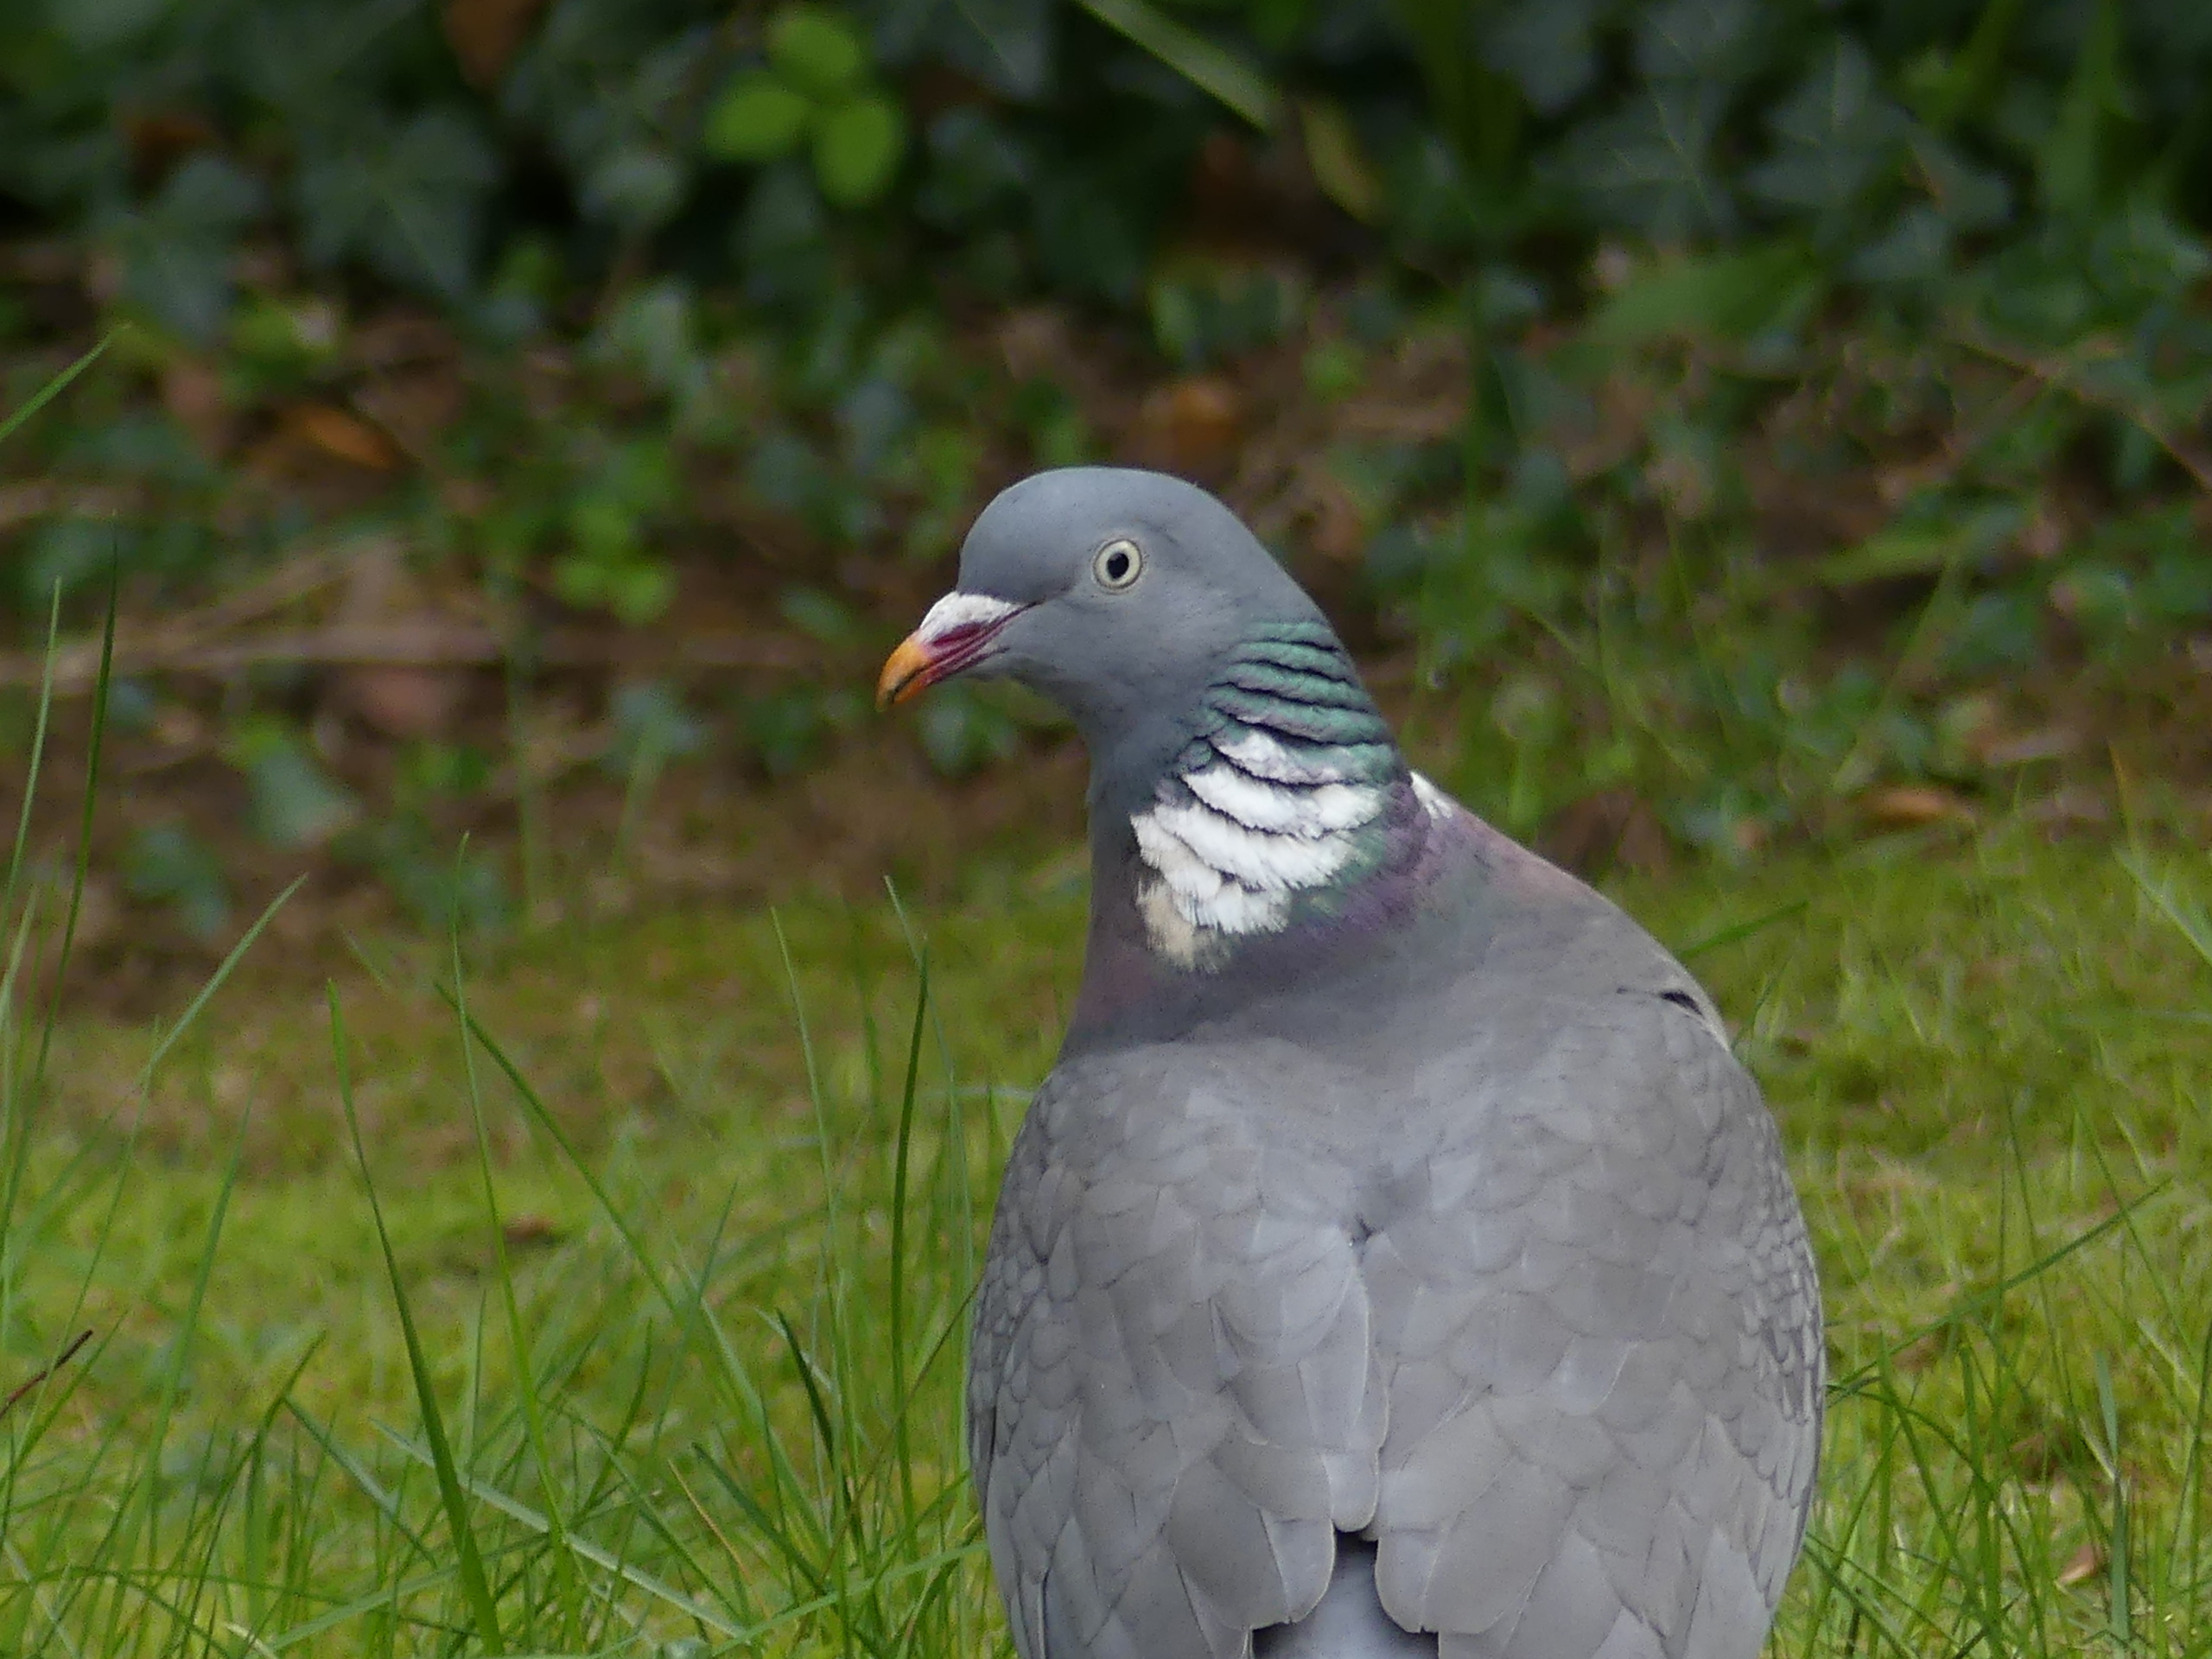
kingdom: Animalia
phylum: Chordata
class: Aves
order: Columbiformes
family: Columbidae
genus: Columba
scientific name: Columba palumbus
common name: Ringdue
